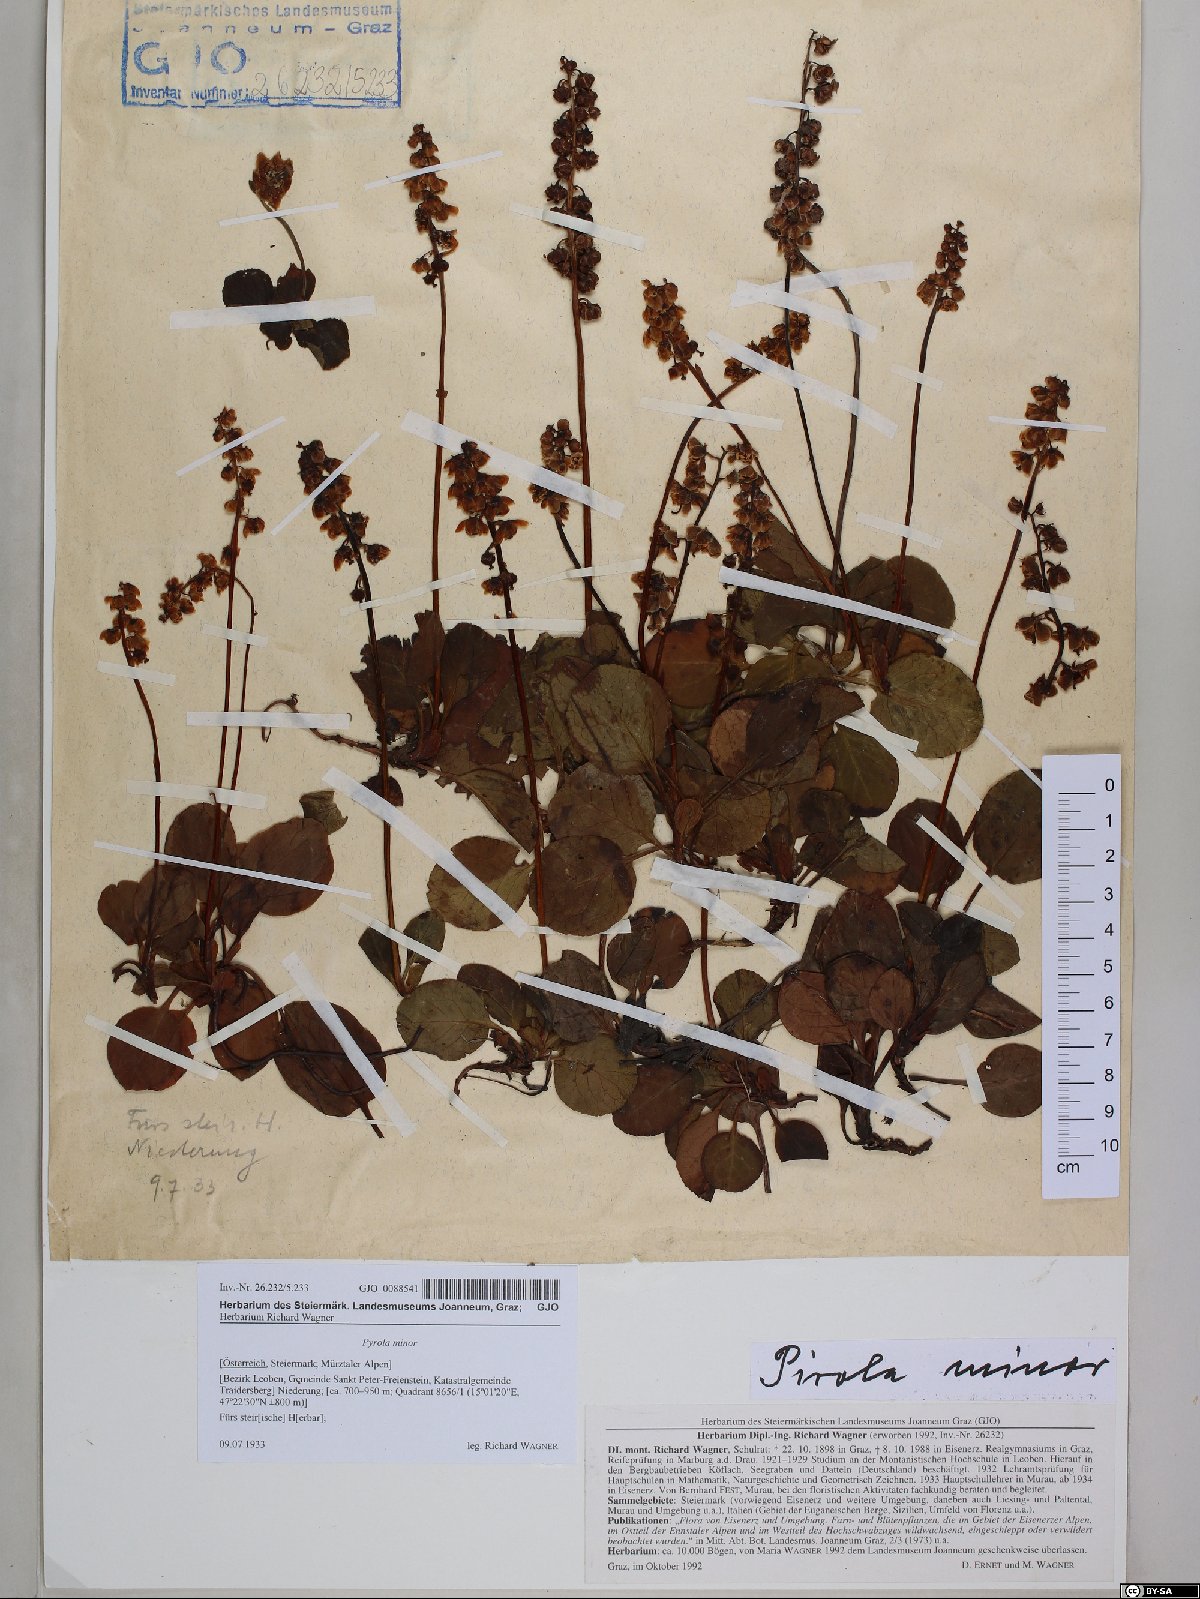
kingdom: Plantae
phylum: Tracheophyta
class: Magnoliopsida
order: Ericales
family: Ericaceae
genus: Pyrola
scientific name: Pyrola minor
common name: Common wintergreen
